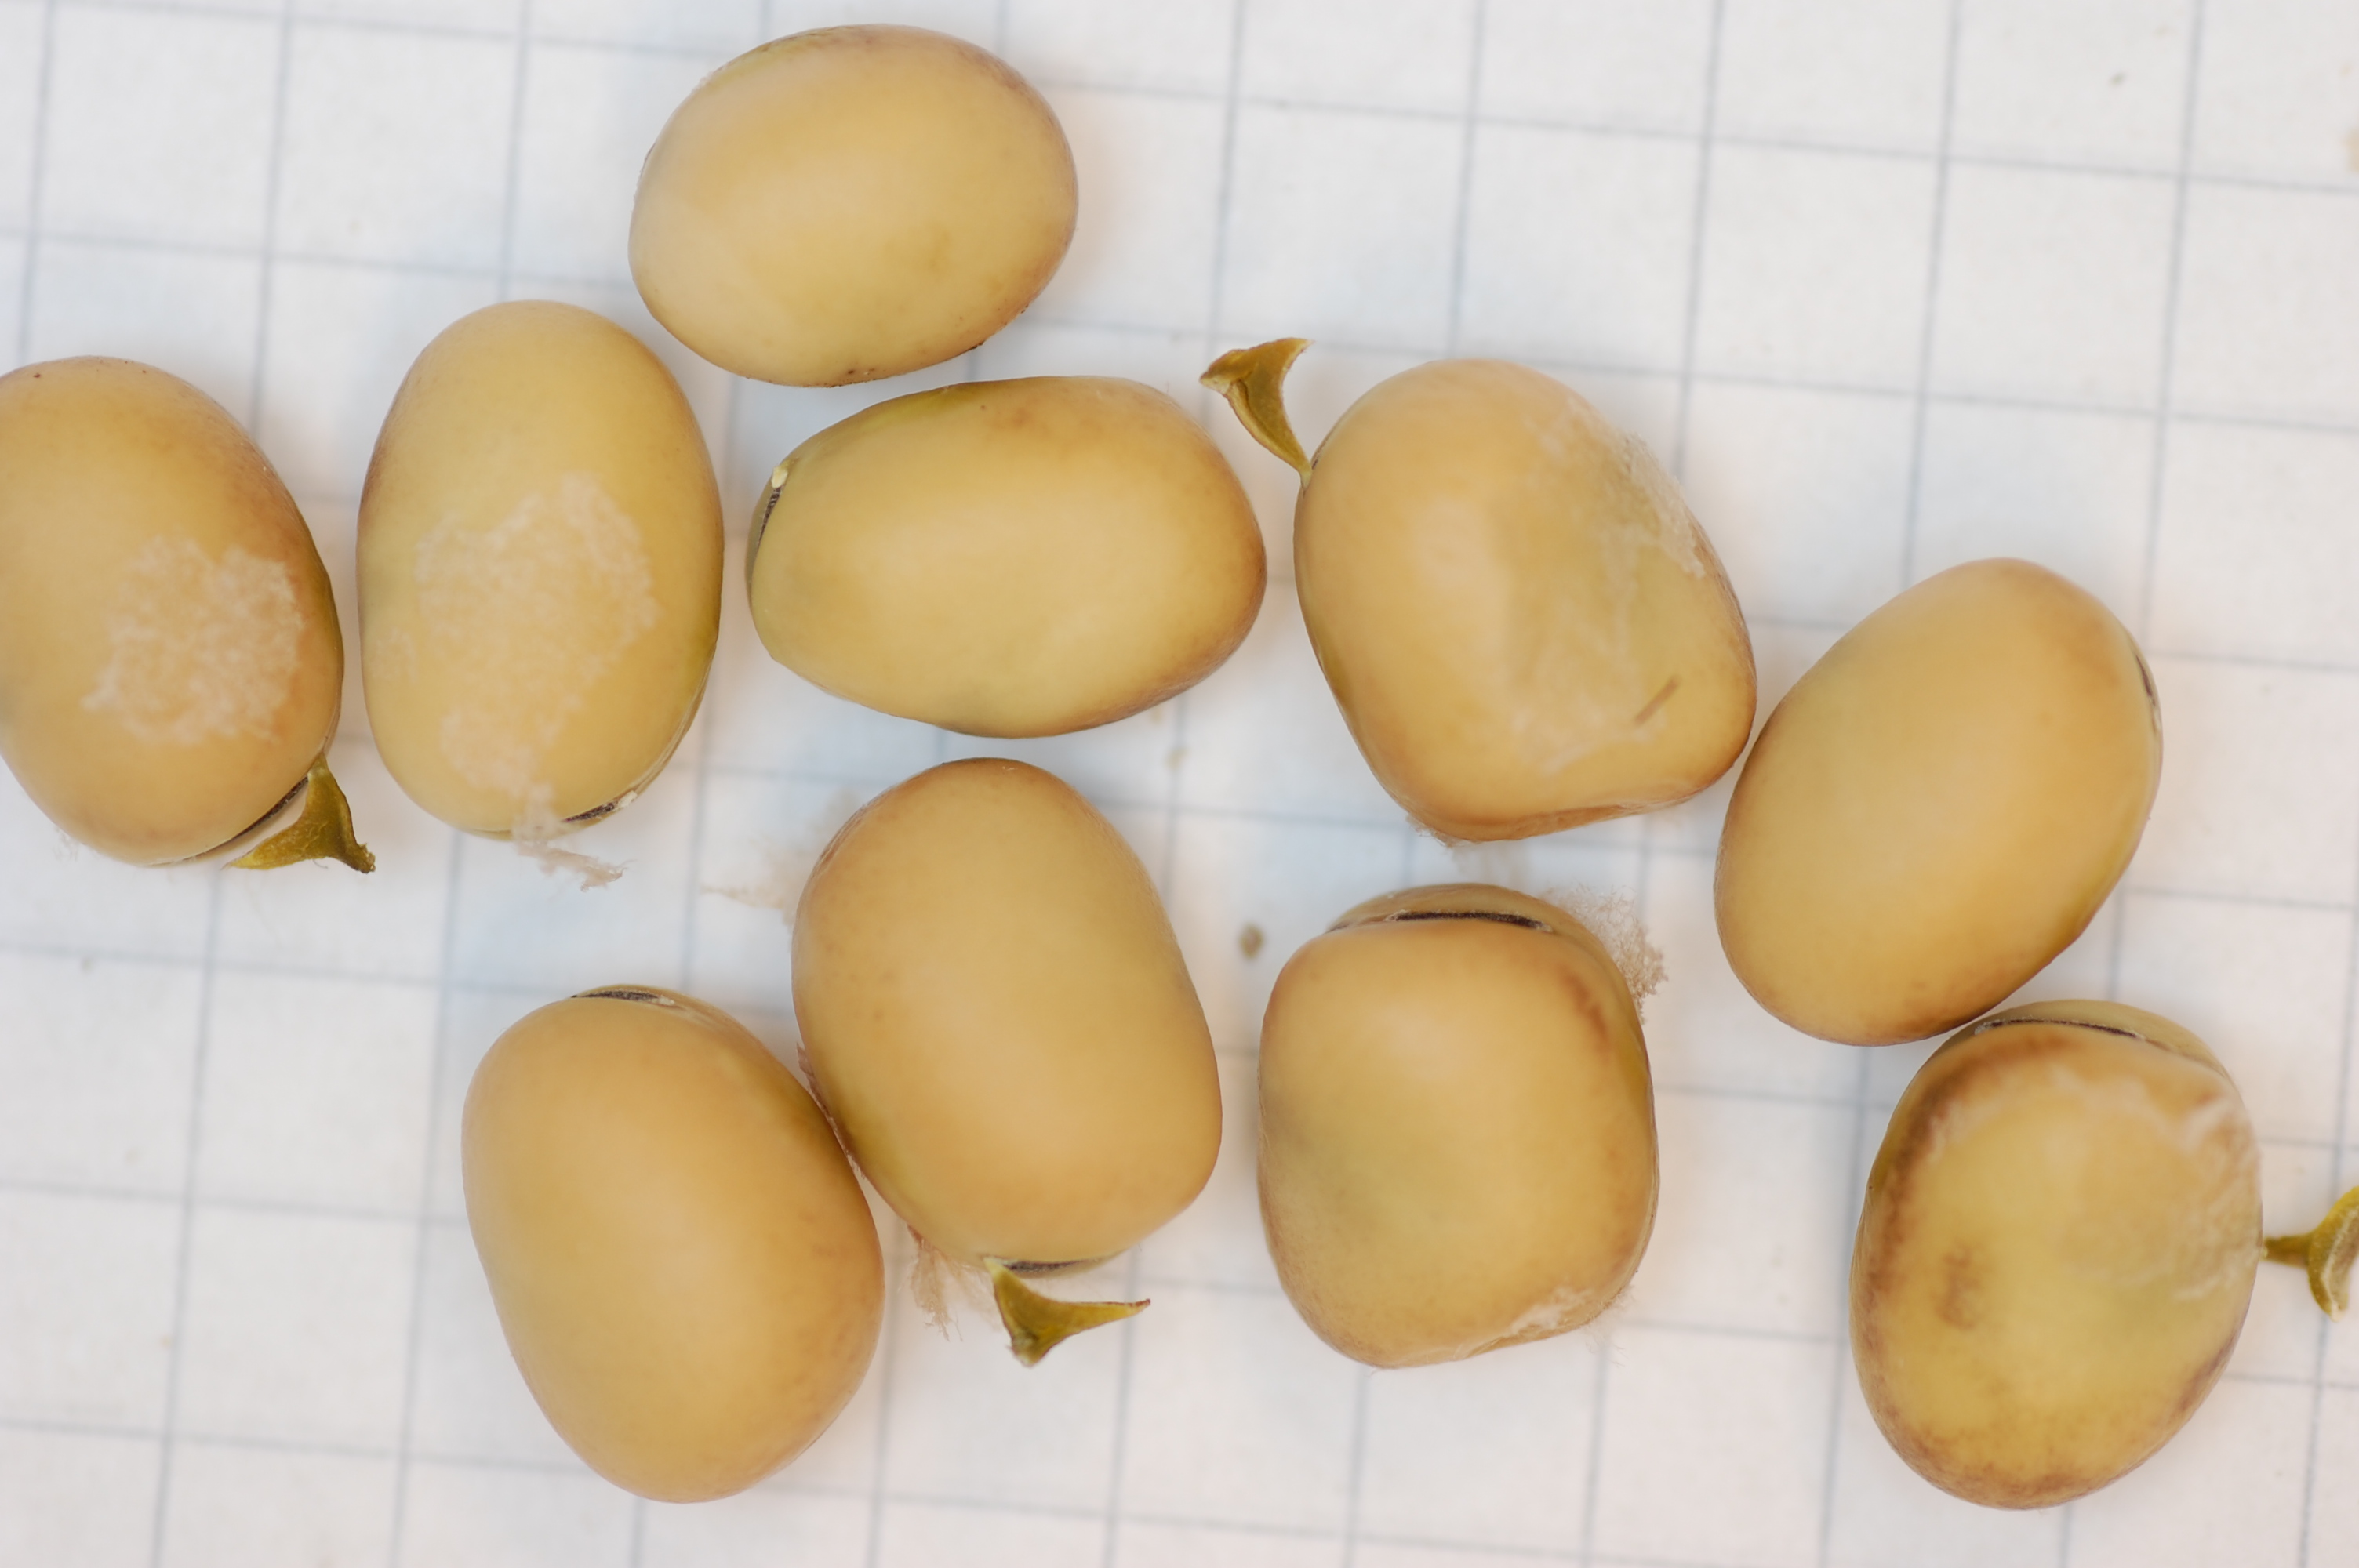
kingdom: Plantae
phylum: Tracheophyta
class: Magnoliopsida
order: Fabales
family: Fabaceae
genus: Vicia
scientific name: Vicia faba
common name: Broad bean
